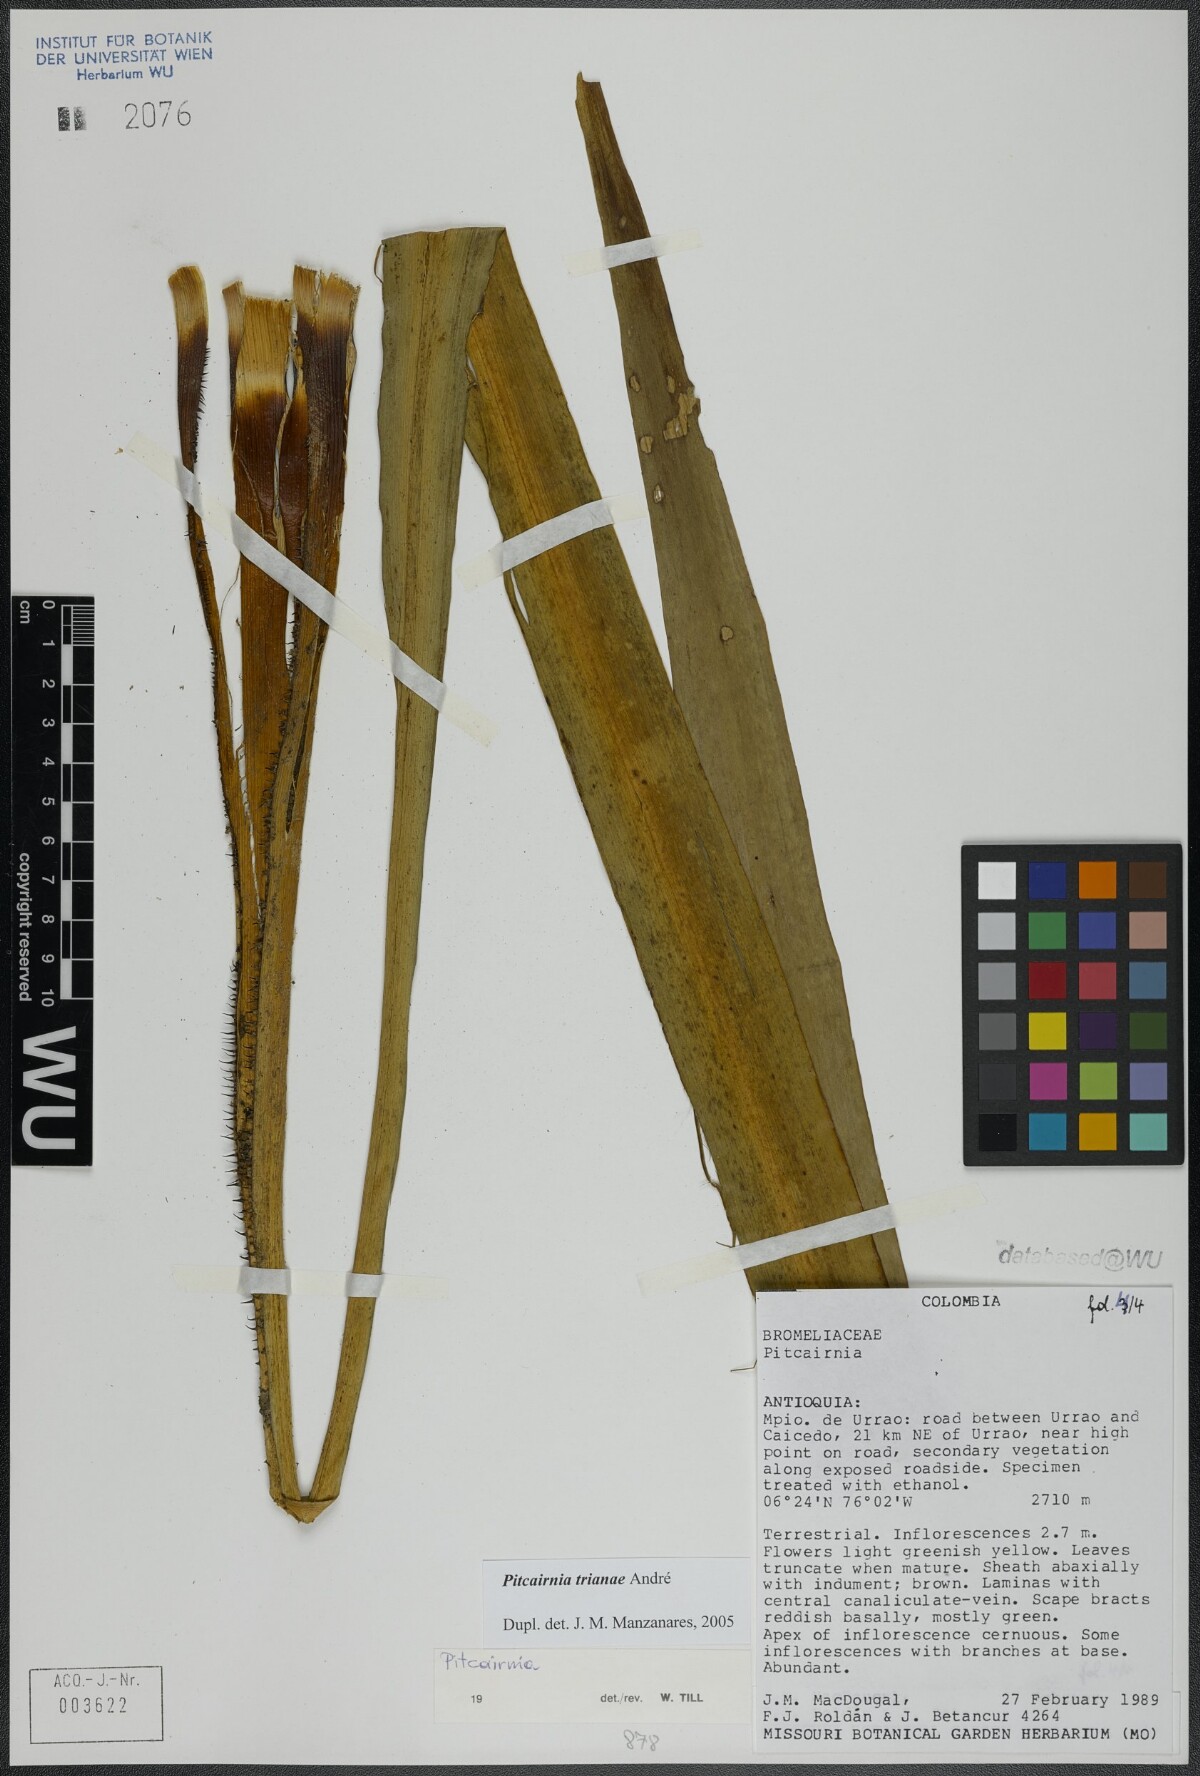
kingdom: Plantae
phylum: Tracheophyta
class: Liliopsida
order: Poales
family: Bromeliaceae
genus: Pitcairnia
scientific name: Pitcairnia trianae
